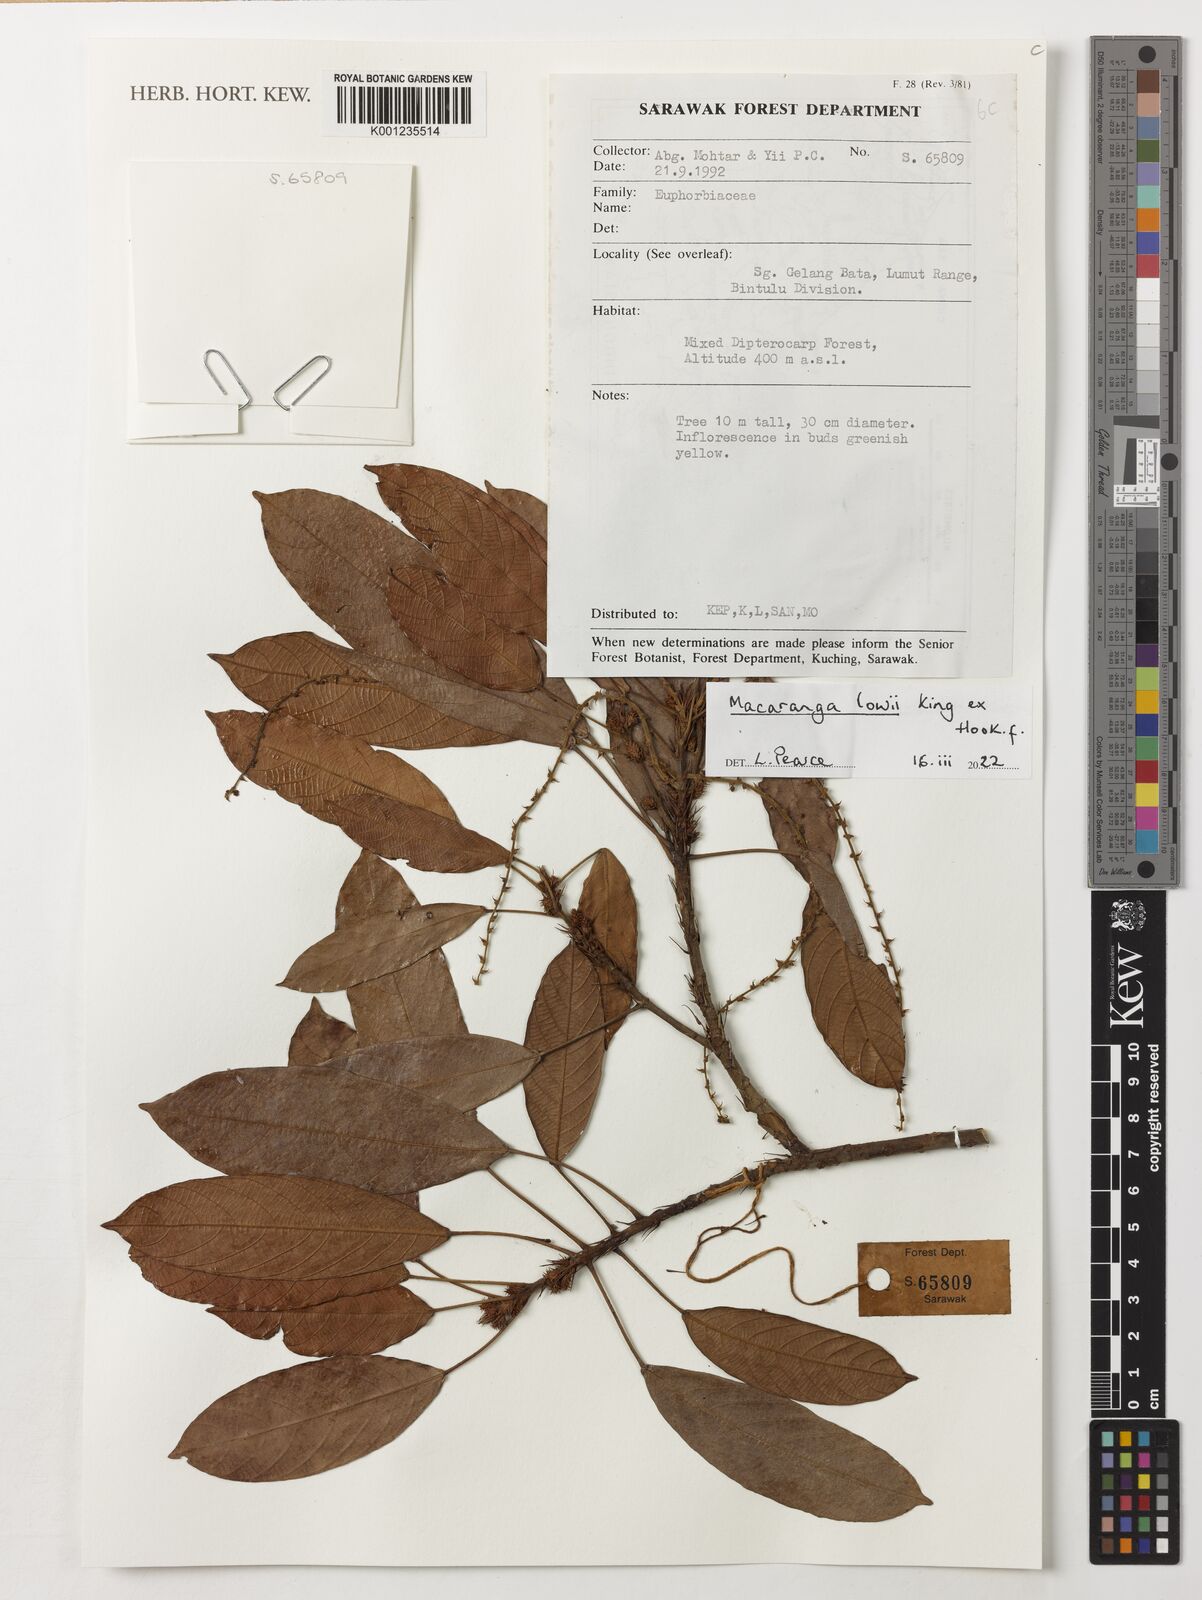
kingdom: Plantae
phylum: Tracheophyta
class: Magnoliopsida
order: Malpighiales
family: Euphorbiaceae
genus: Macaranga
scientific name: Macaranga lowii
